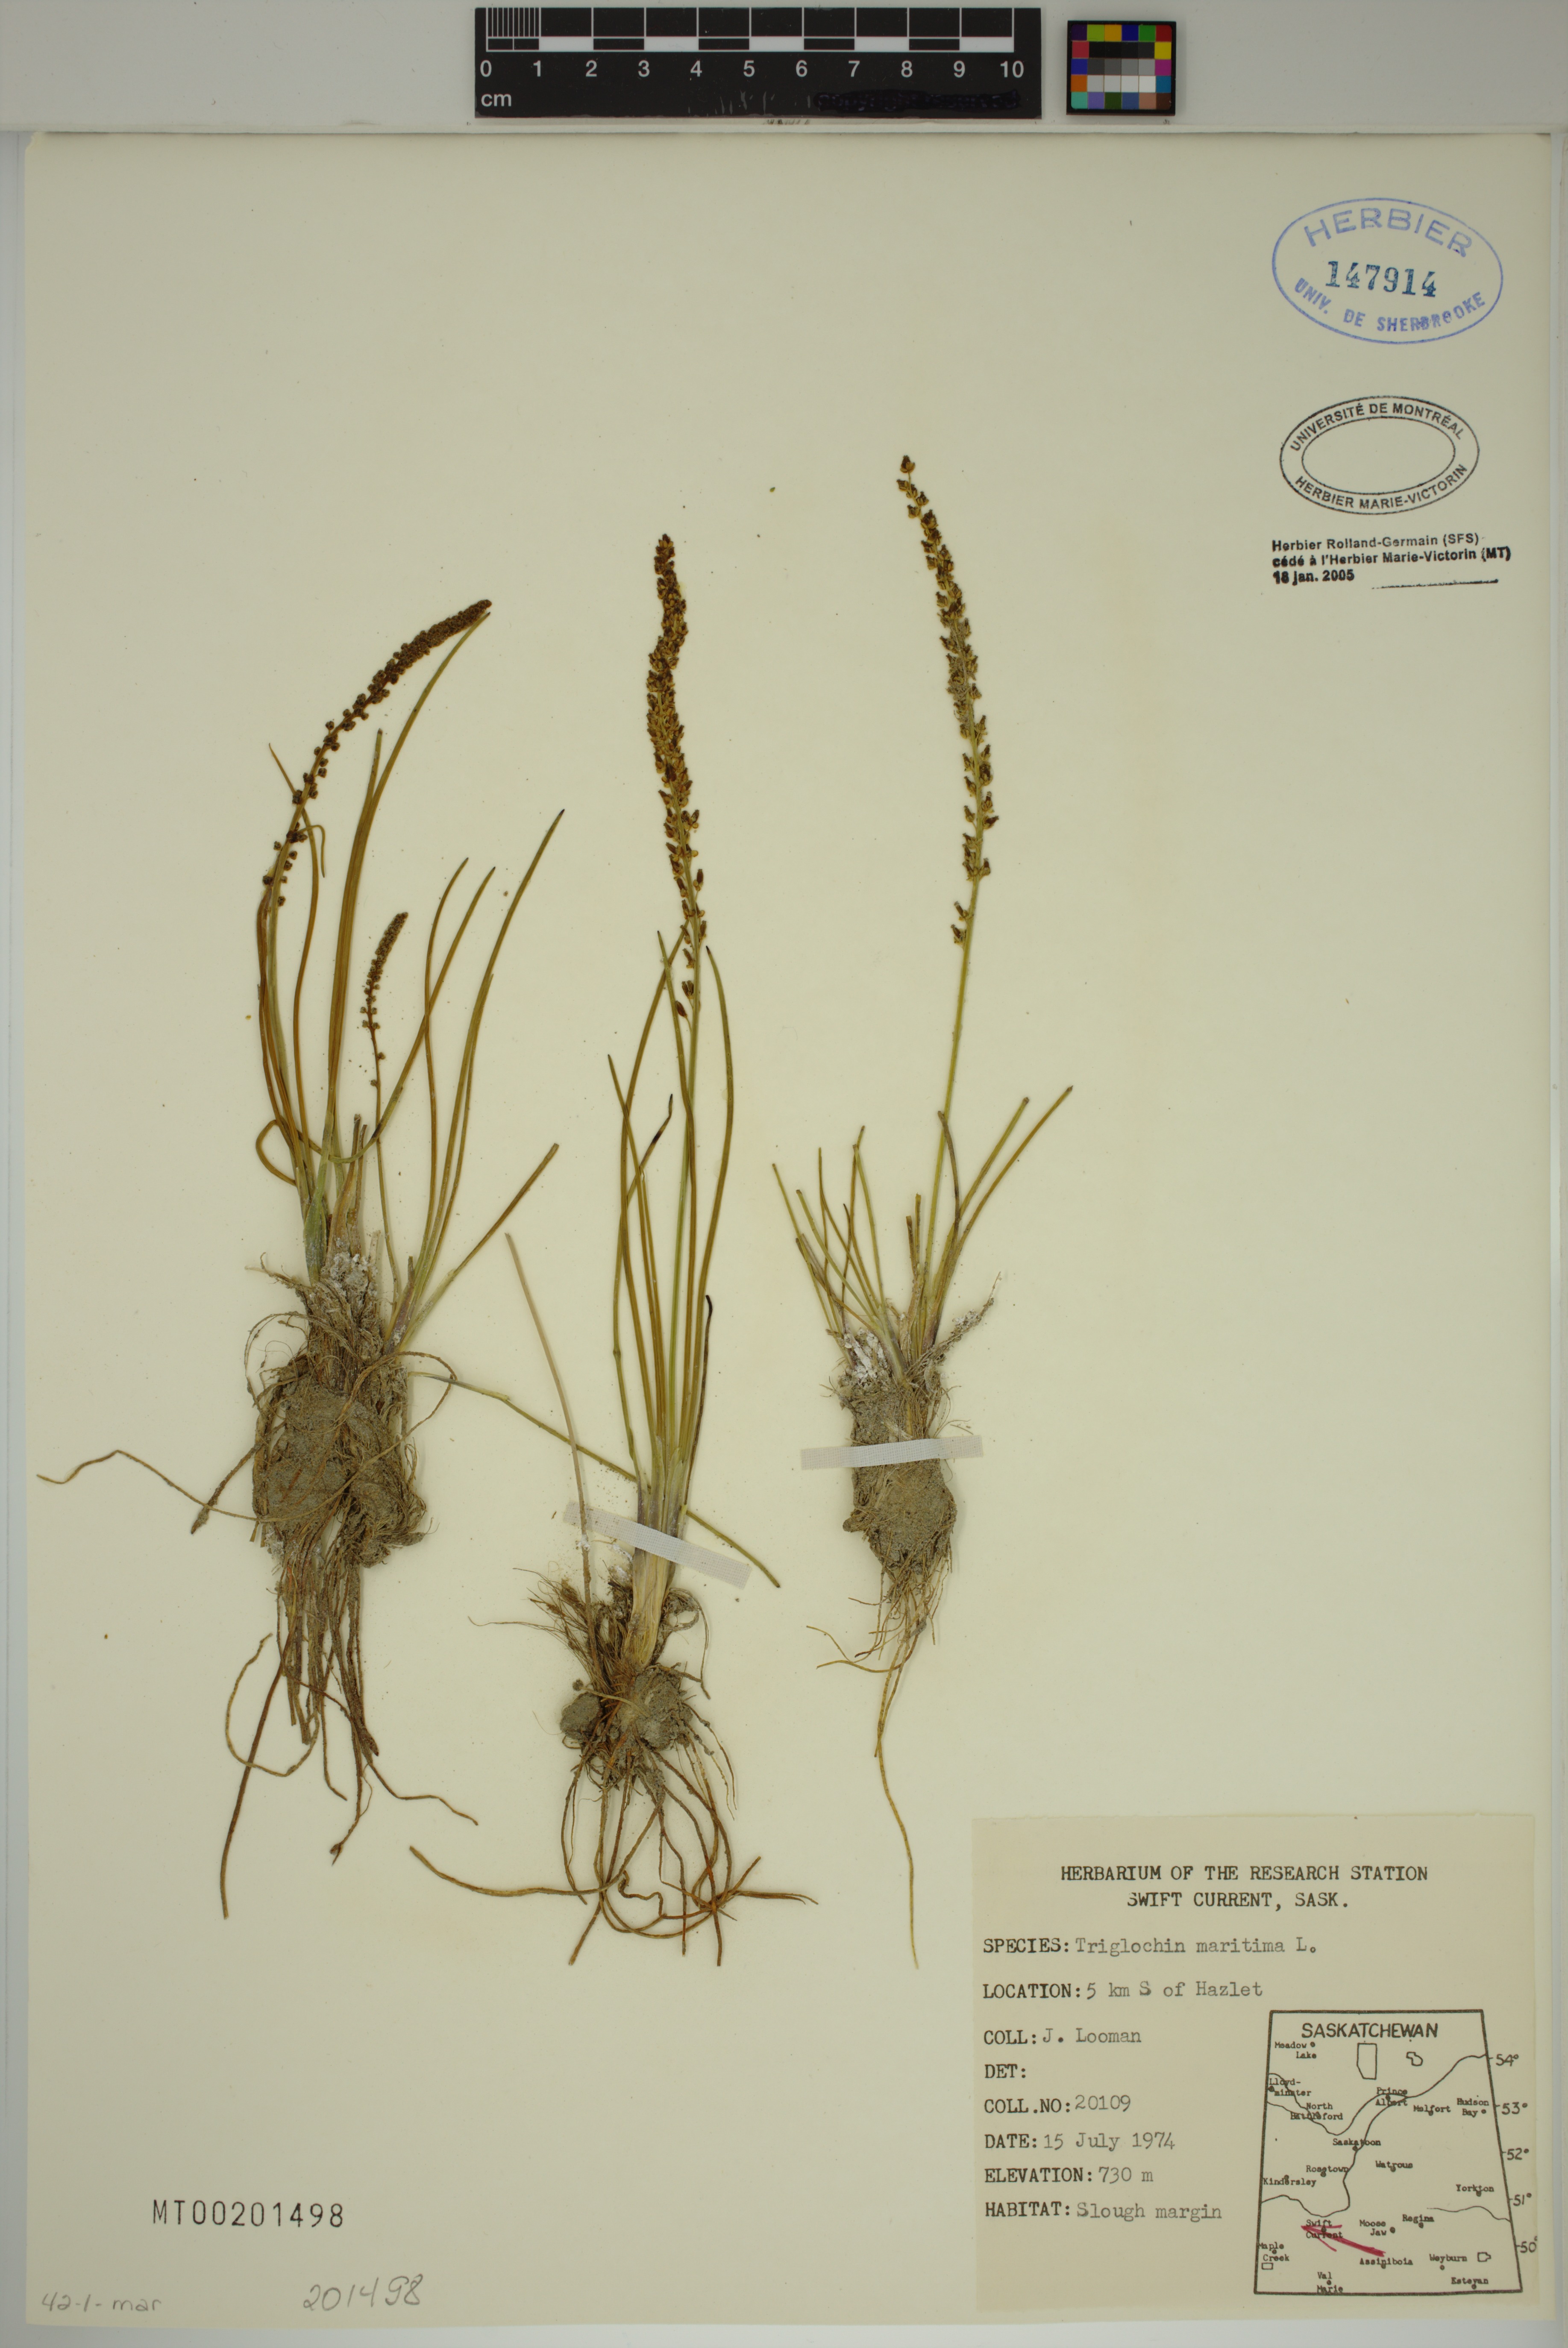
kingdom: Plantae
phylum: Tracheophyta
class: Liliopsida
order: Alismatales
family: Juncaginaceae
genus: Triglochin
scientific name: Triglochin maritima
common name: Sea arrowgrass
